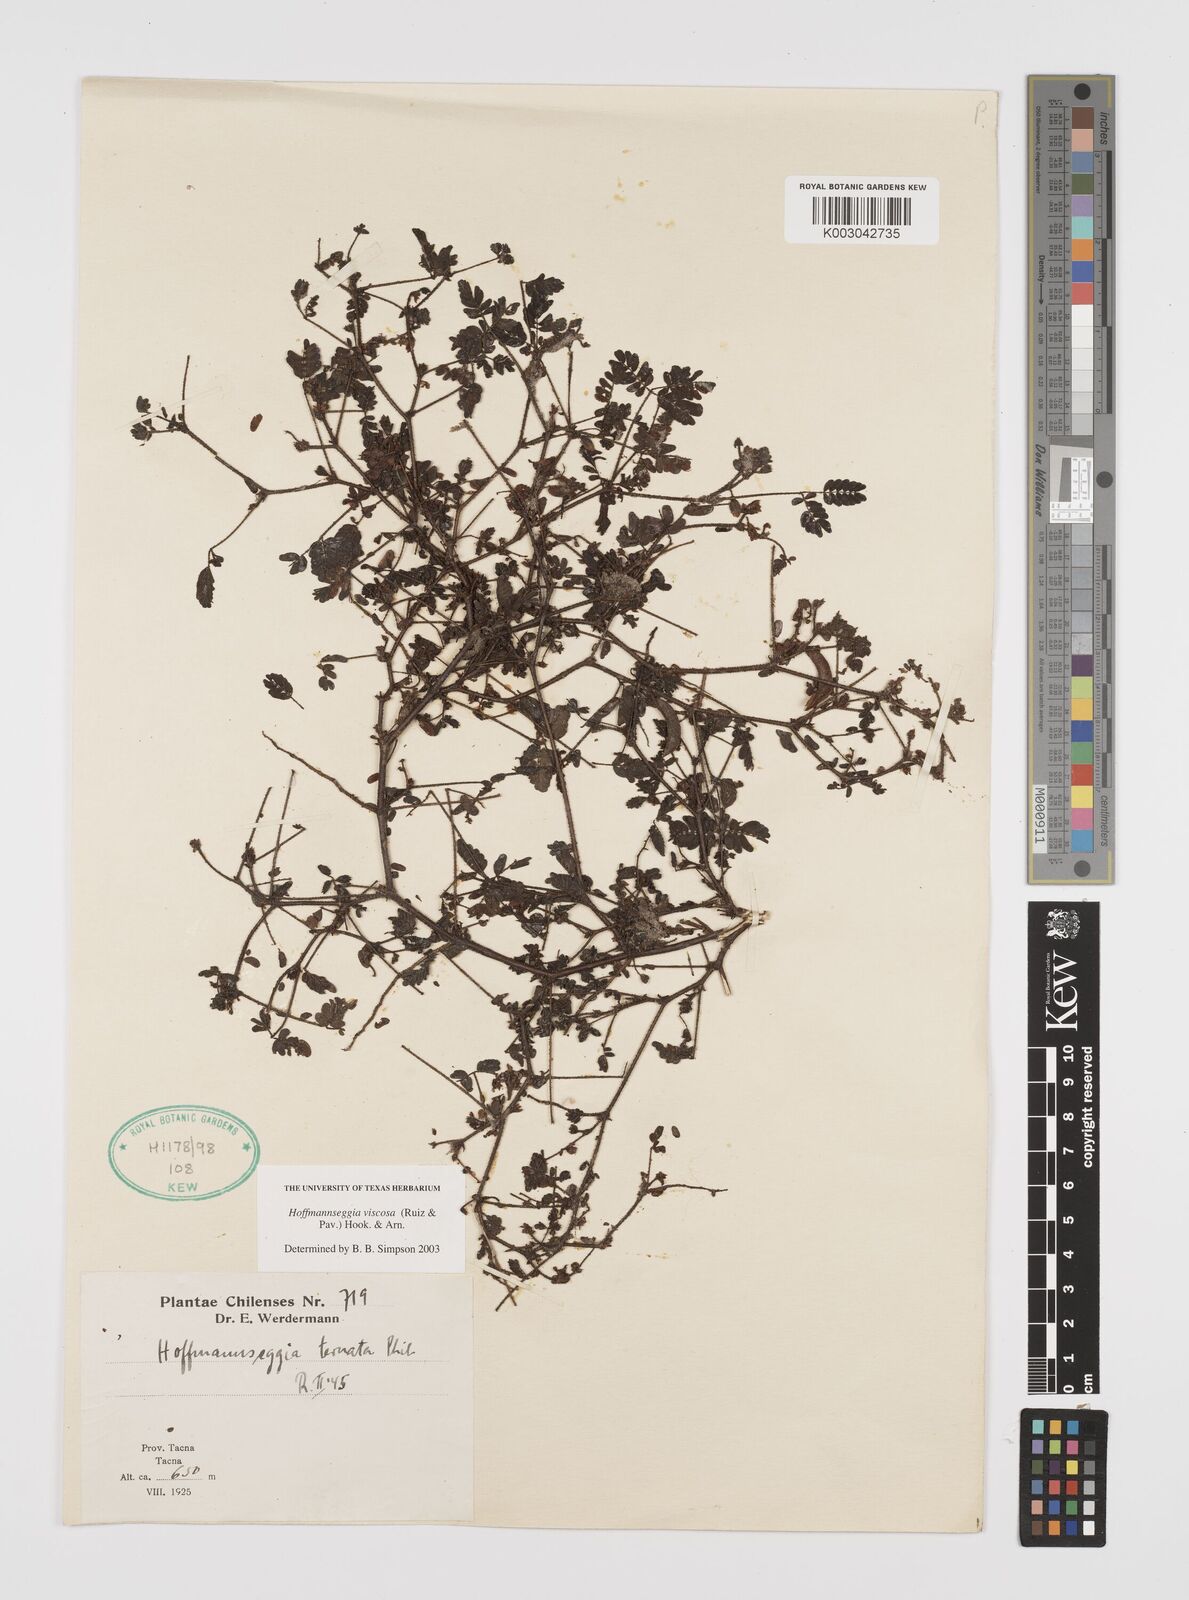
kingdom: Plantae
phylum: Tracheophyta
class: Magnoliopsida
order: Fabales
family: Fabaceae
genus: Hoffmannseggia
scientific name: Hoffmannseggia viscosa
